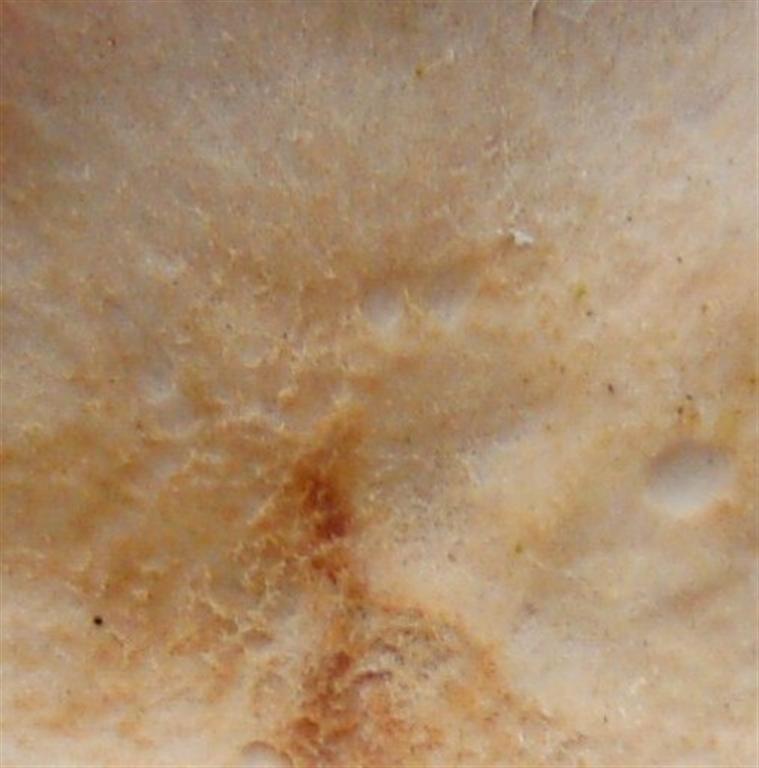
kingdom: Fungi
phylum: Basidiomycota
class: Agaricomycetes
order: Agaricales
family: Hydnangiaceae
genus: Laccaria
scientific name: Laccaria proxima
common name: stor ametysthat
